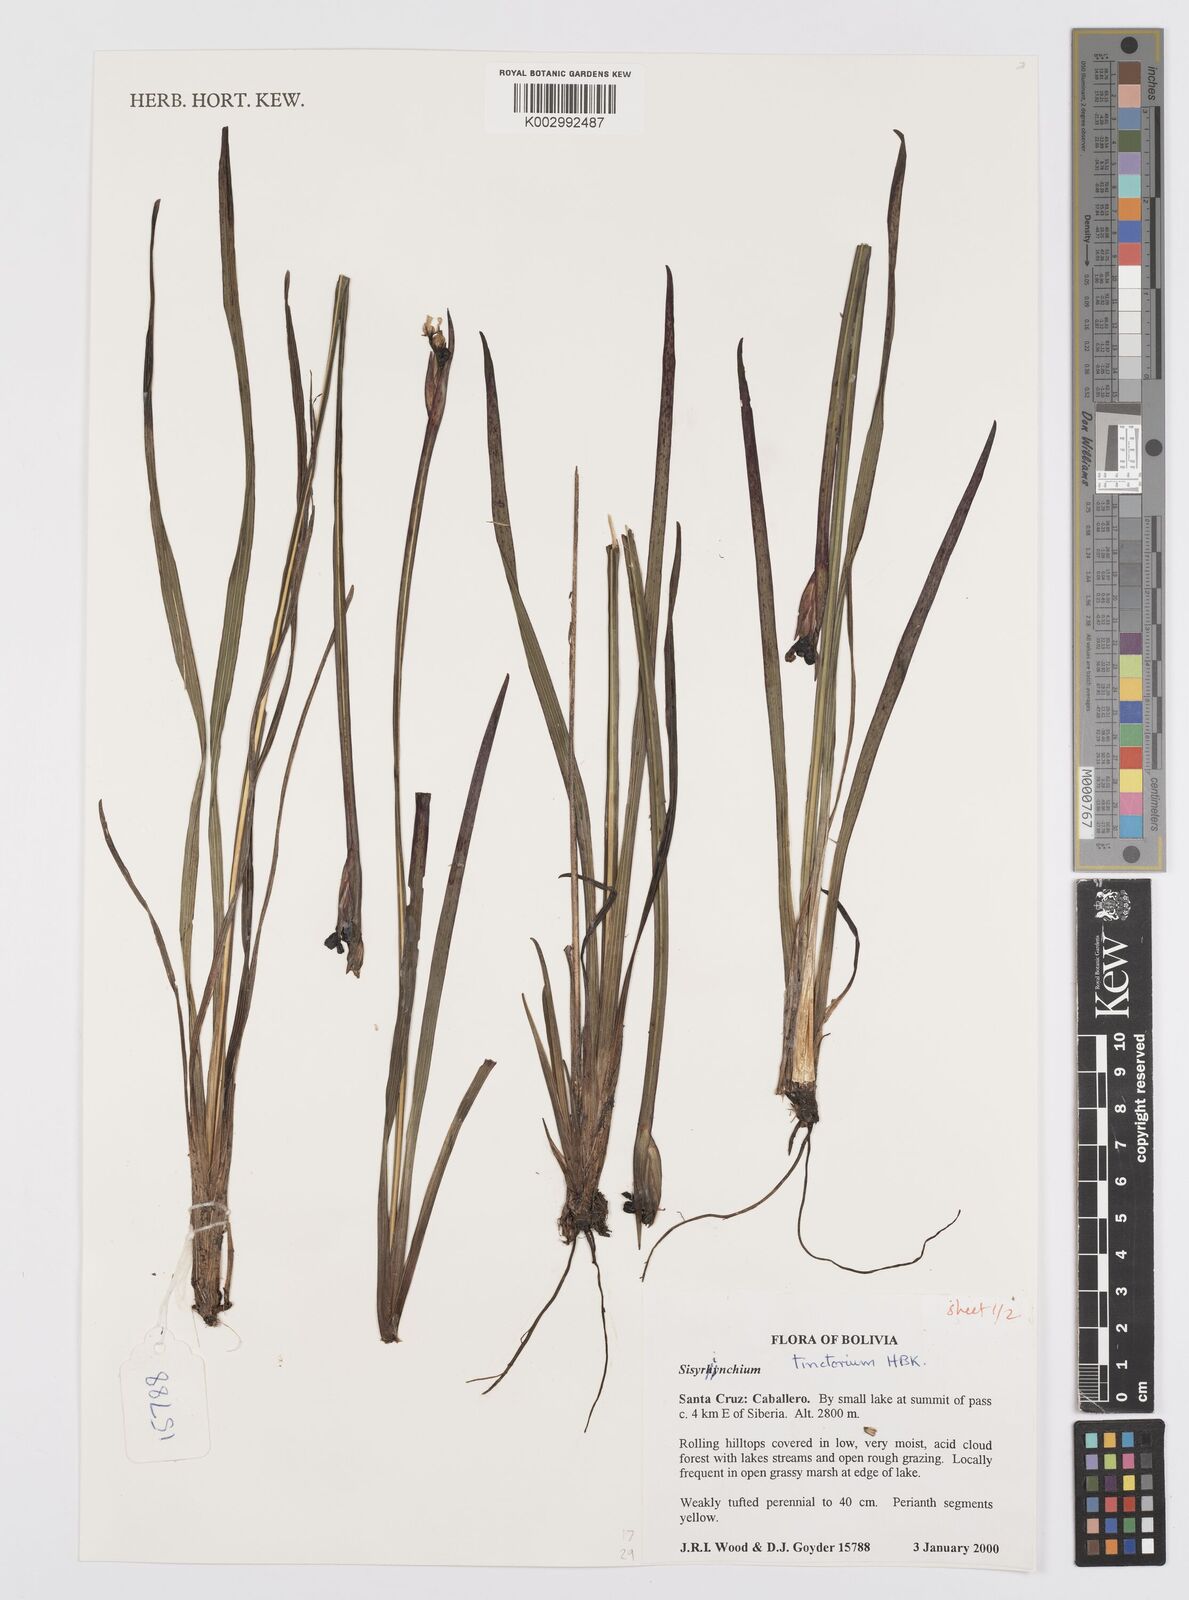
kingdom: Plantae
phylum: Tracheophyta
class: Liliopsida
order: Asparagales
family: Iridaceae
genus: Sisyrinchium
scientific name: Sisyrinchium tinctorium
